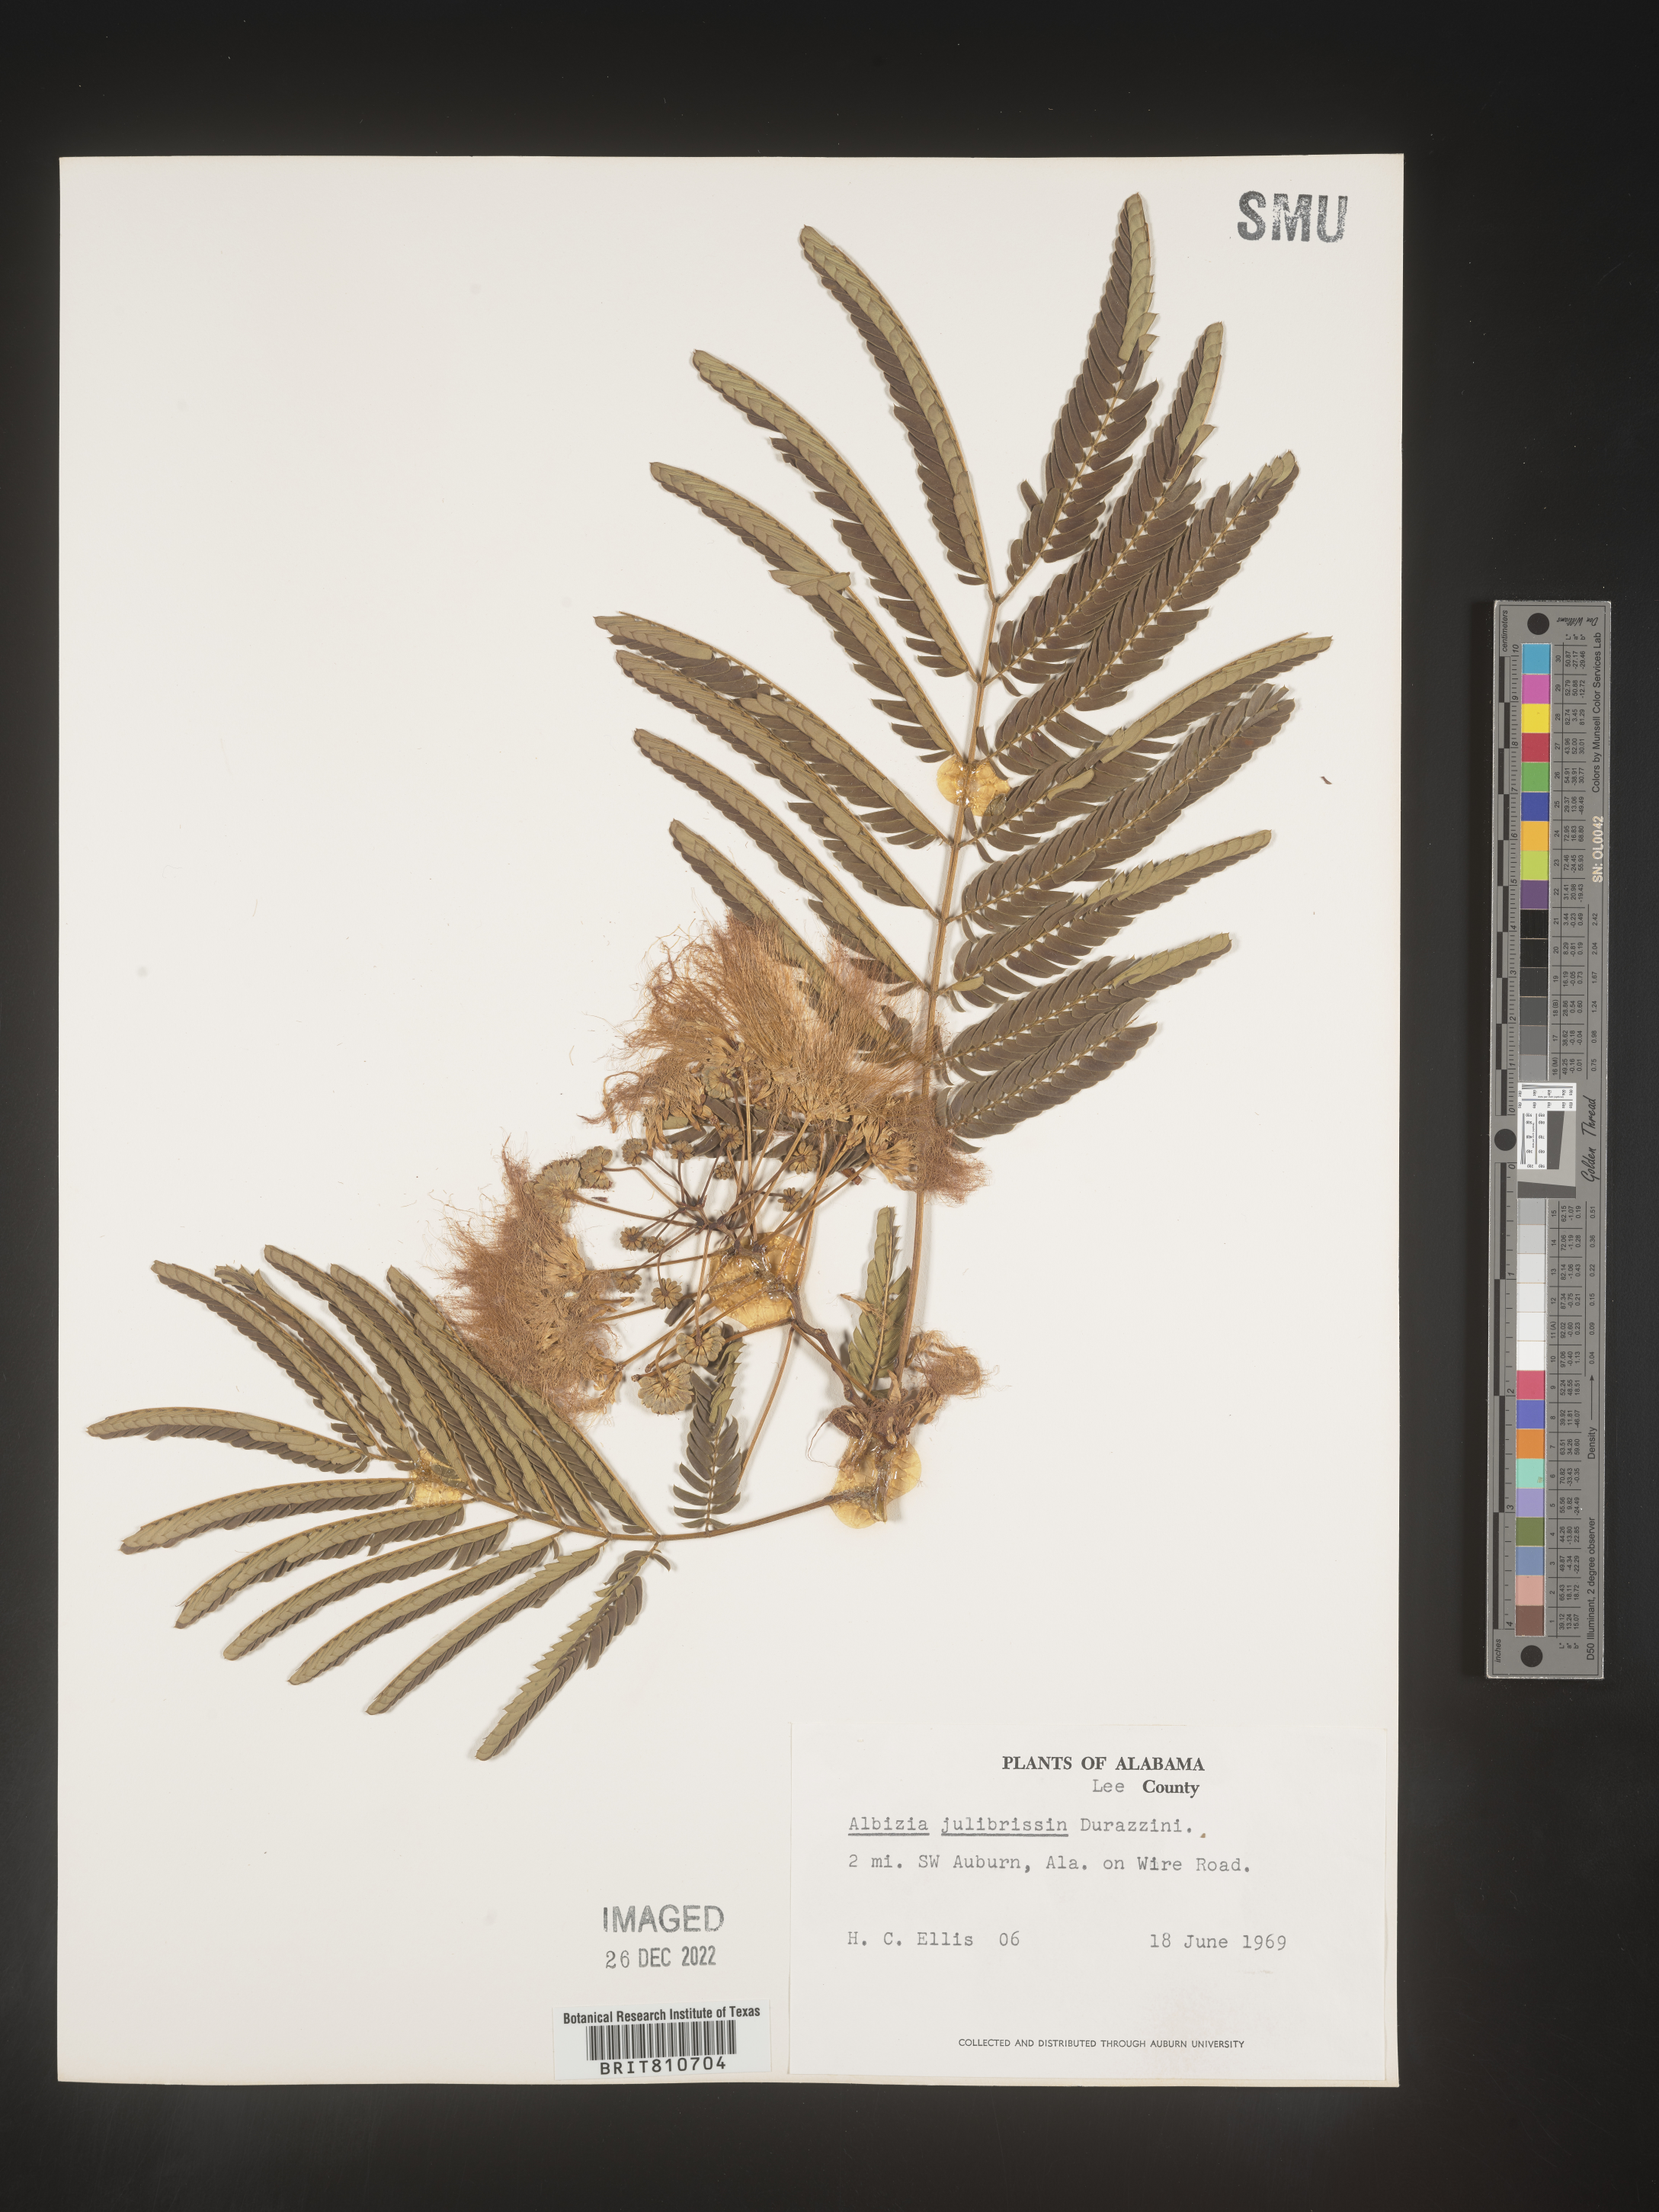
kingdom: Plantae
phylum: Tracheophyta
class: Magnoliopsida
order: Fabales
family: Fabaceae
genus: Albizia
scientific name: Albizia
